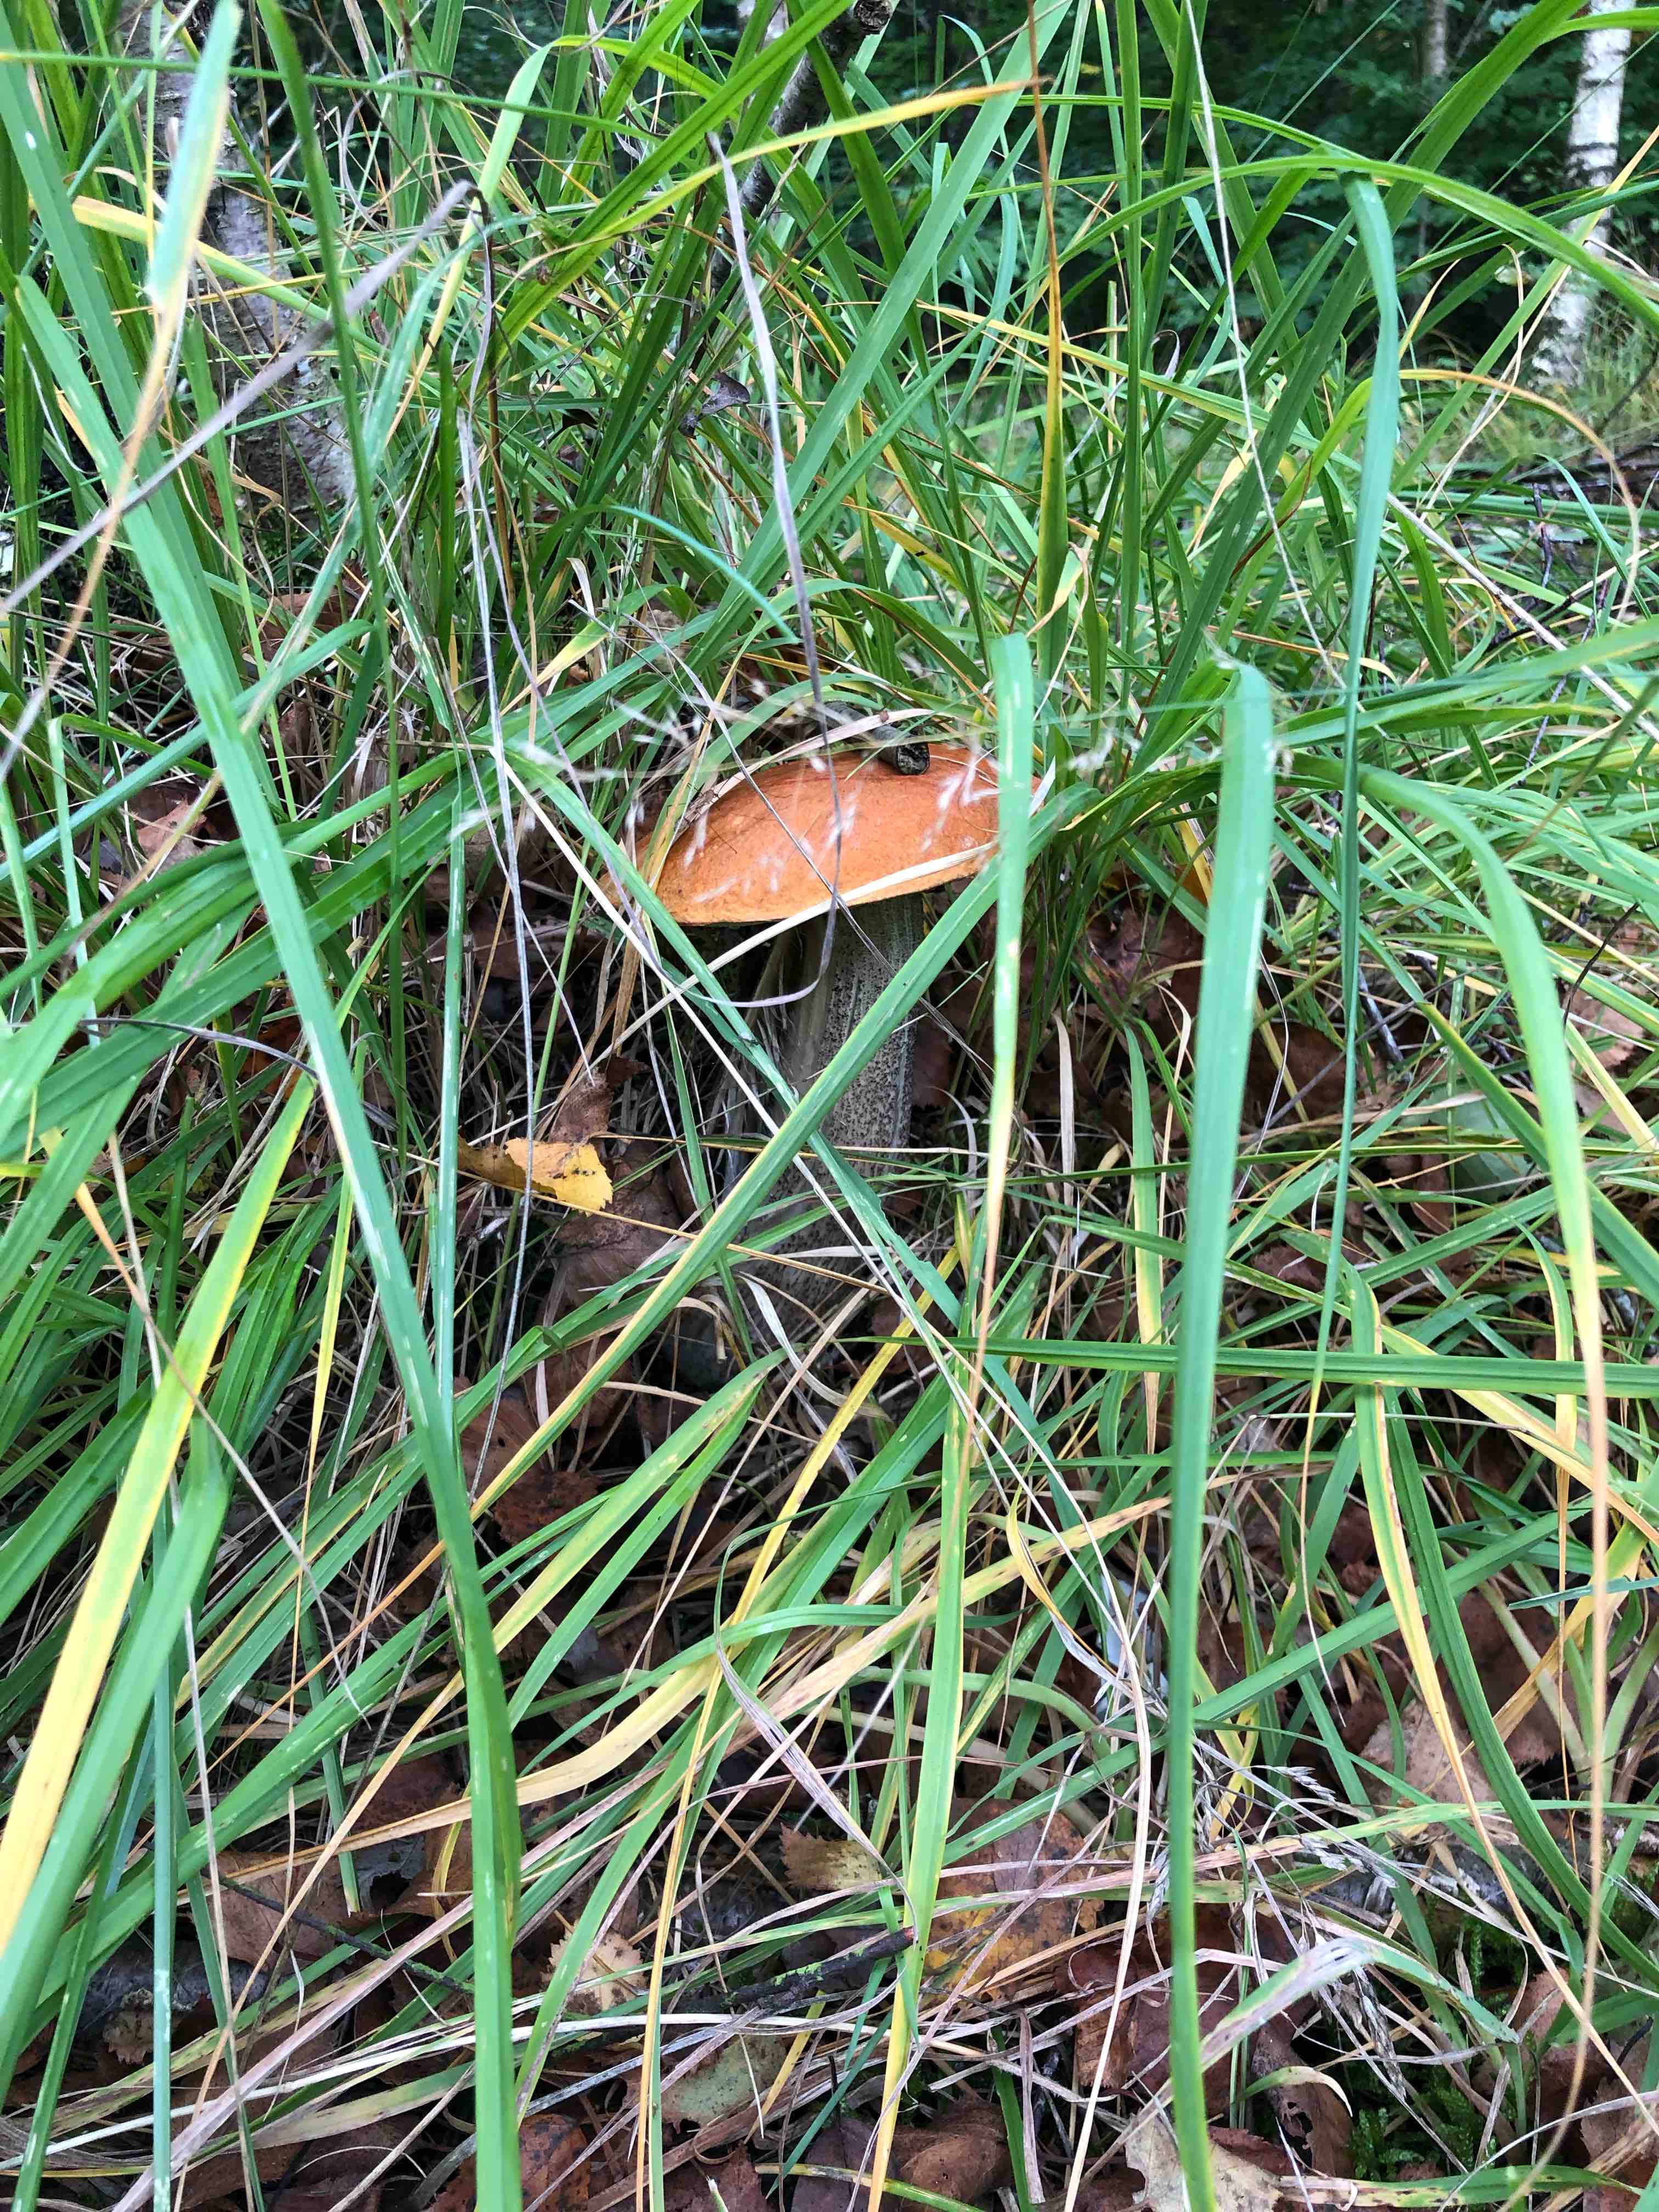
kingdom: Fungi
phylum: Basidiomycota
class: Agaricomycetes
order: Boletales
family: Boletaceae
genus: Leccinum
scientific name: Leccinum versipelle
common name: orange skælrørhat
